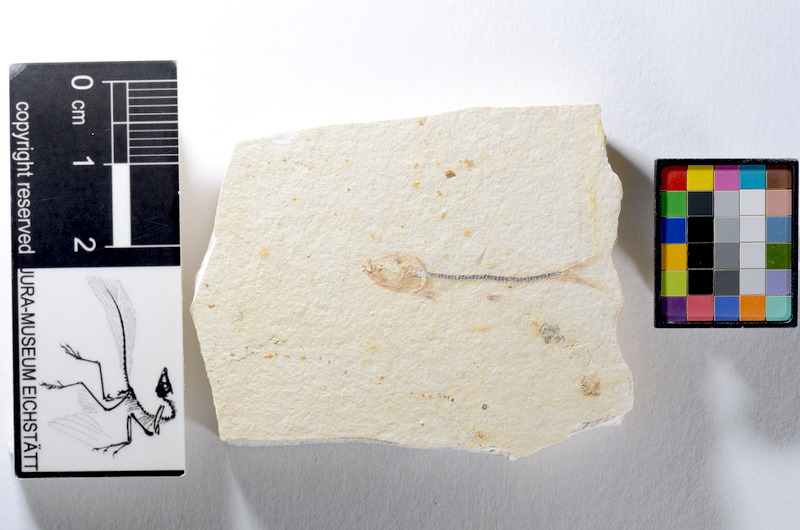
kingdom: Animalia
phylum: Chordata
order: Salmoniformes
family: Orthogonikleithridae
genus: Orthogonikleithrus
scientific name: Orthogonikleithrus hoelli
